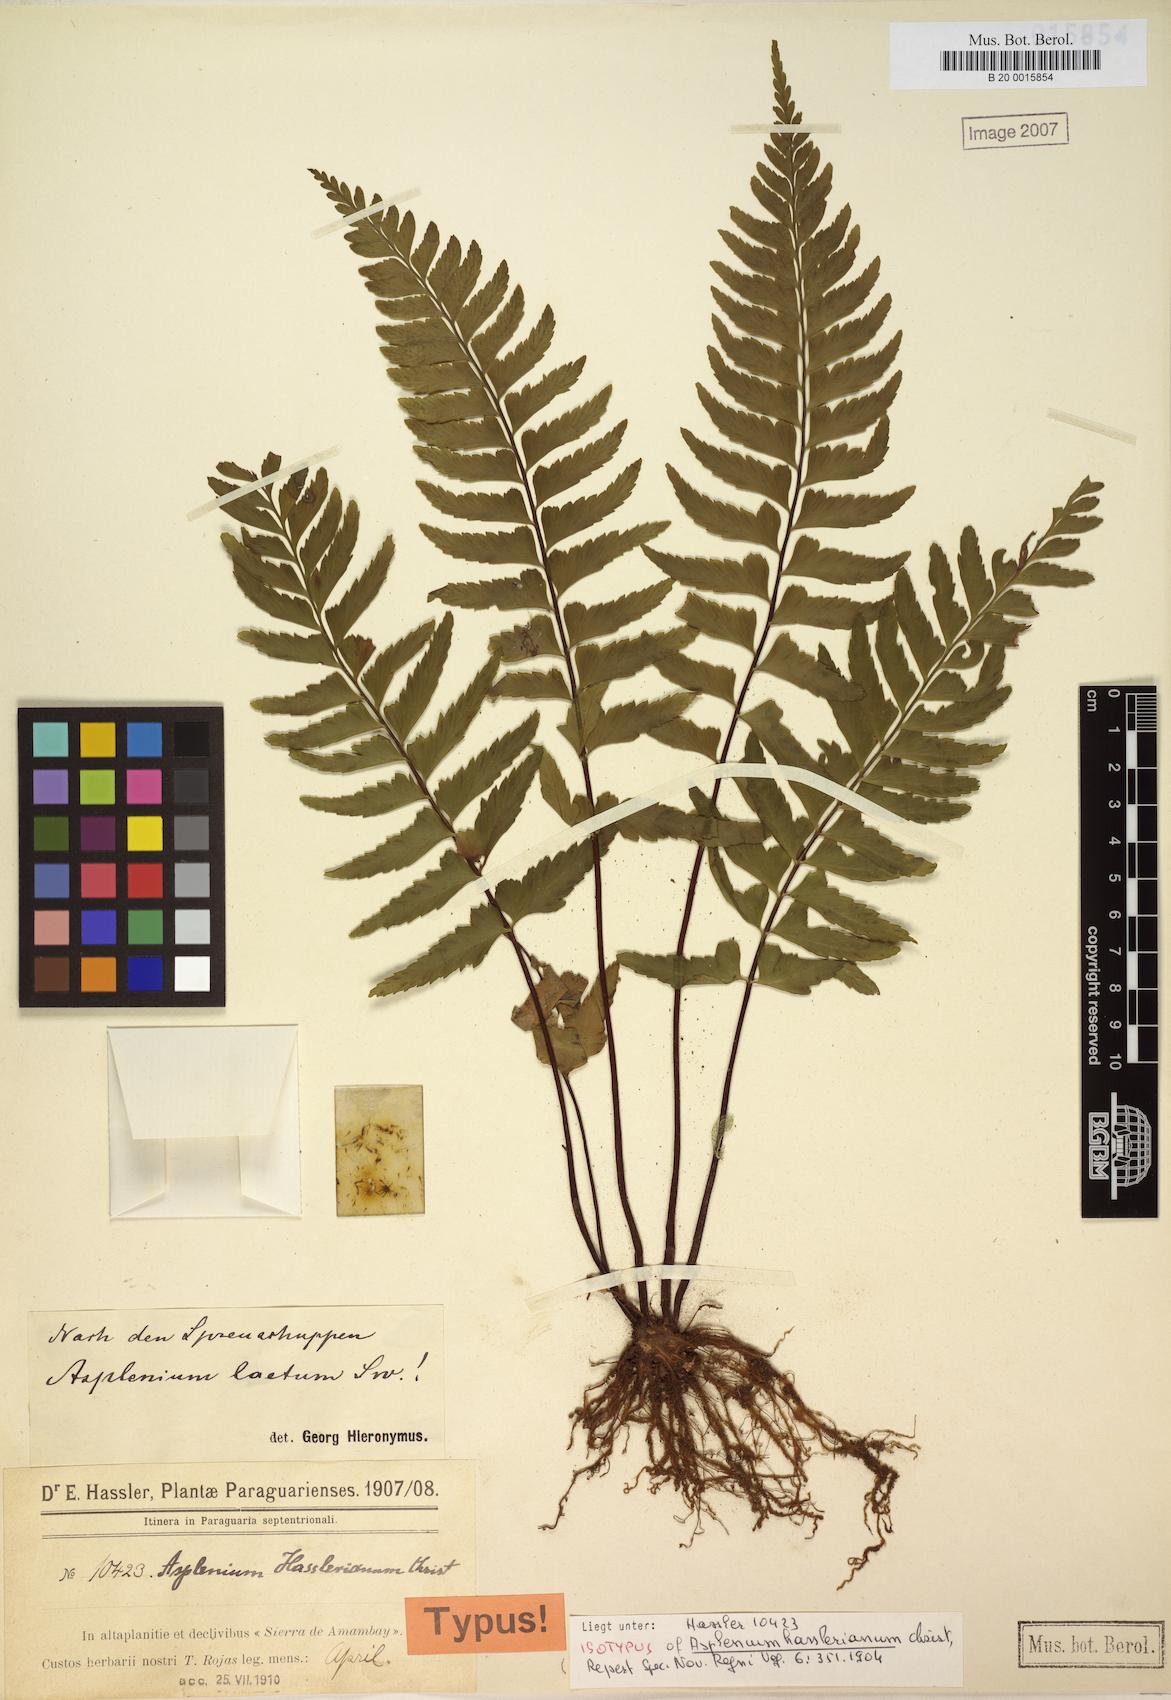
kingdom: Plantae
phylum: Tracheophyta
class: Polypodiopsida
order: Polypodiales
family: Aspleniaceae
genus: Hymenasplenium
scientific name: Hymenasplenium laetum
